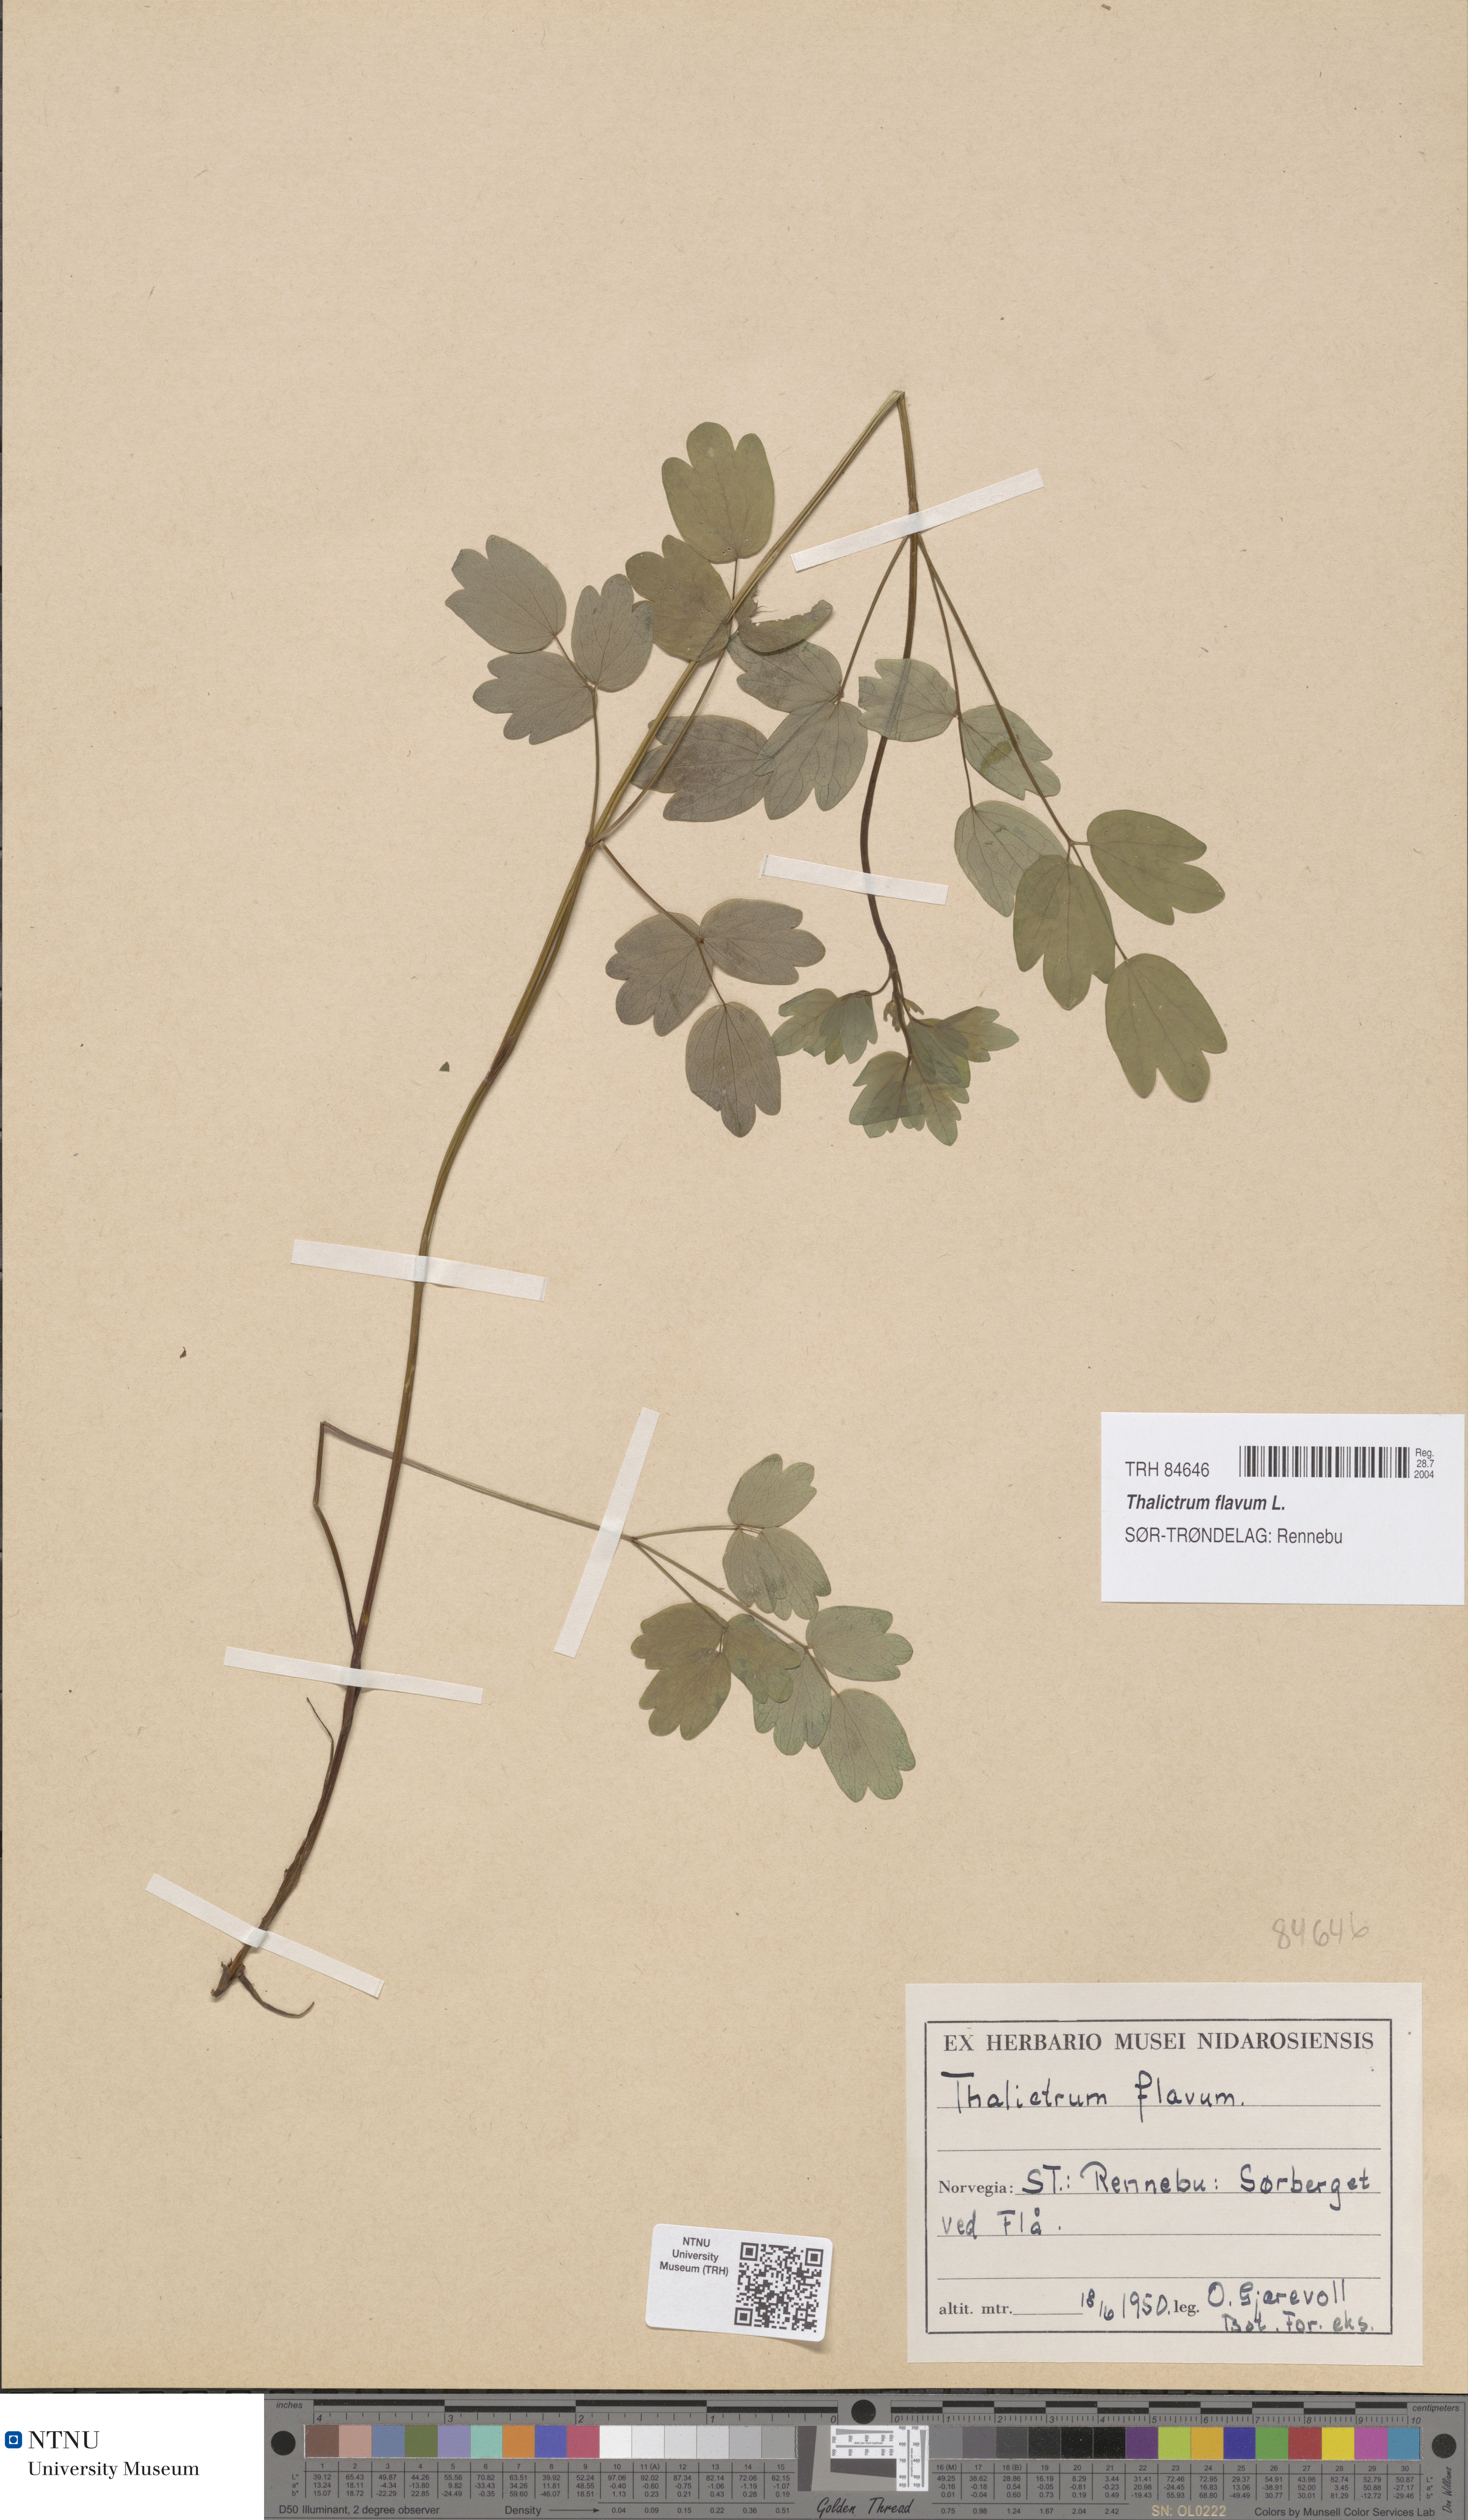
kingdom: Plantae
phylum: Tracheophyta
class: Magnoliopsida
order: Ranunculales
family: Ranunculaceae
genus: Thalictrum
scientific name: Thalictrum flavum
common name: Common meadow-rue
